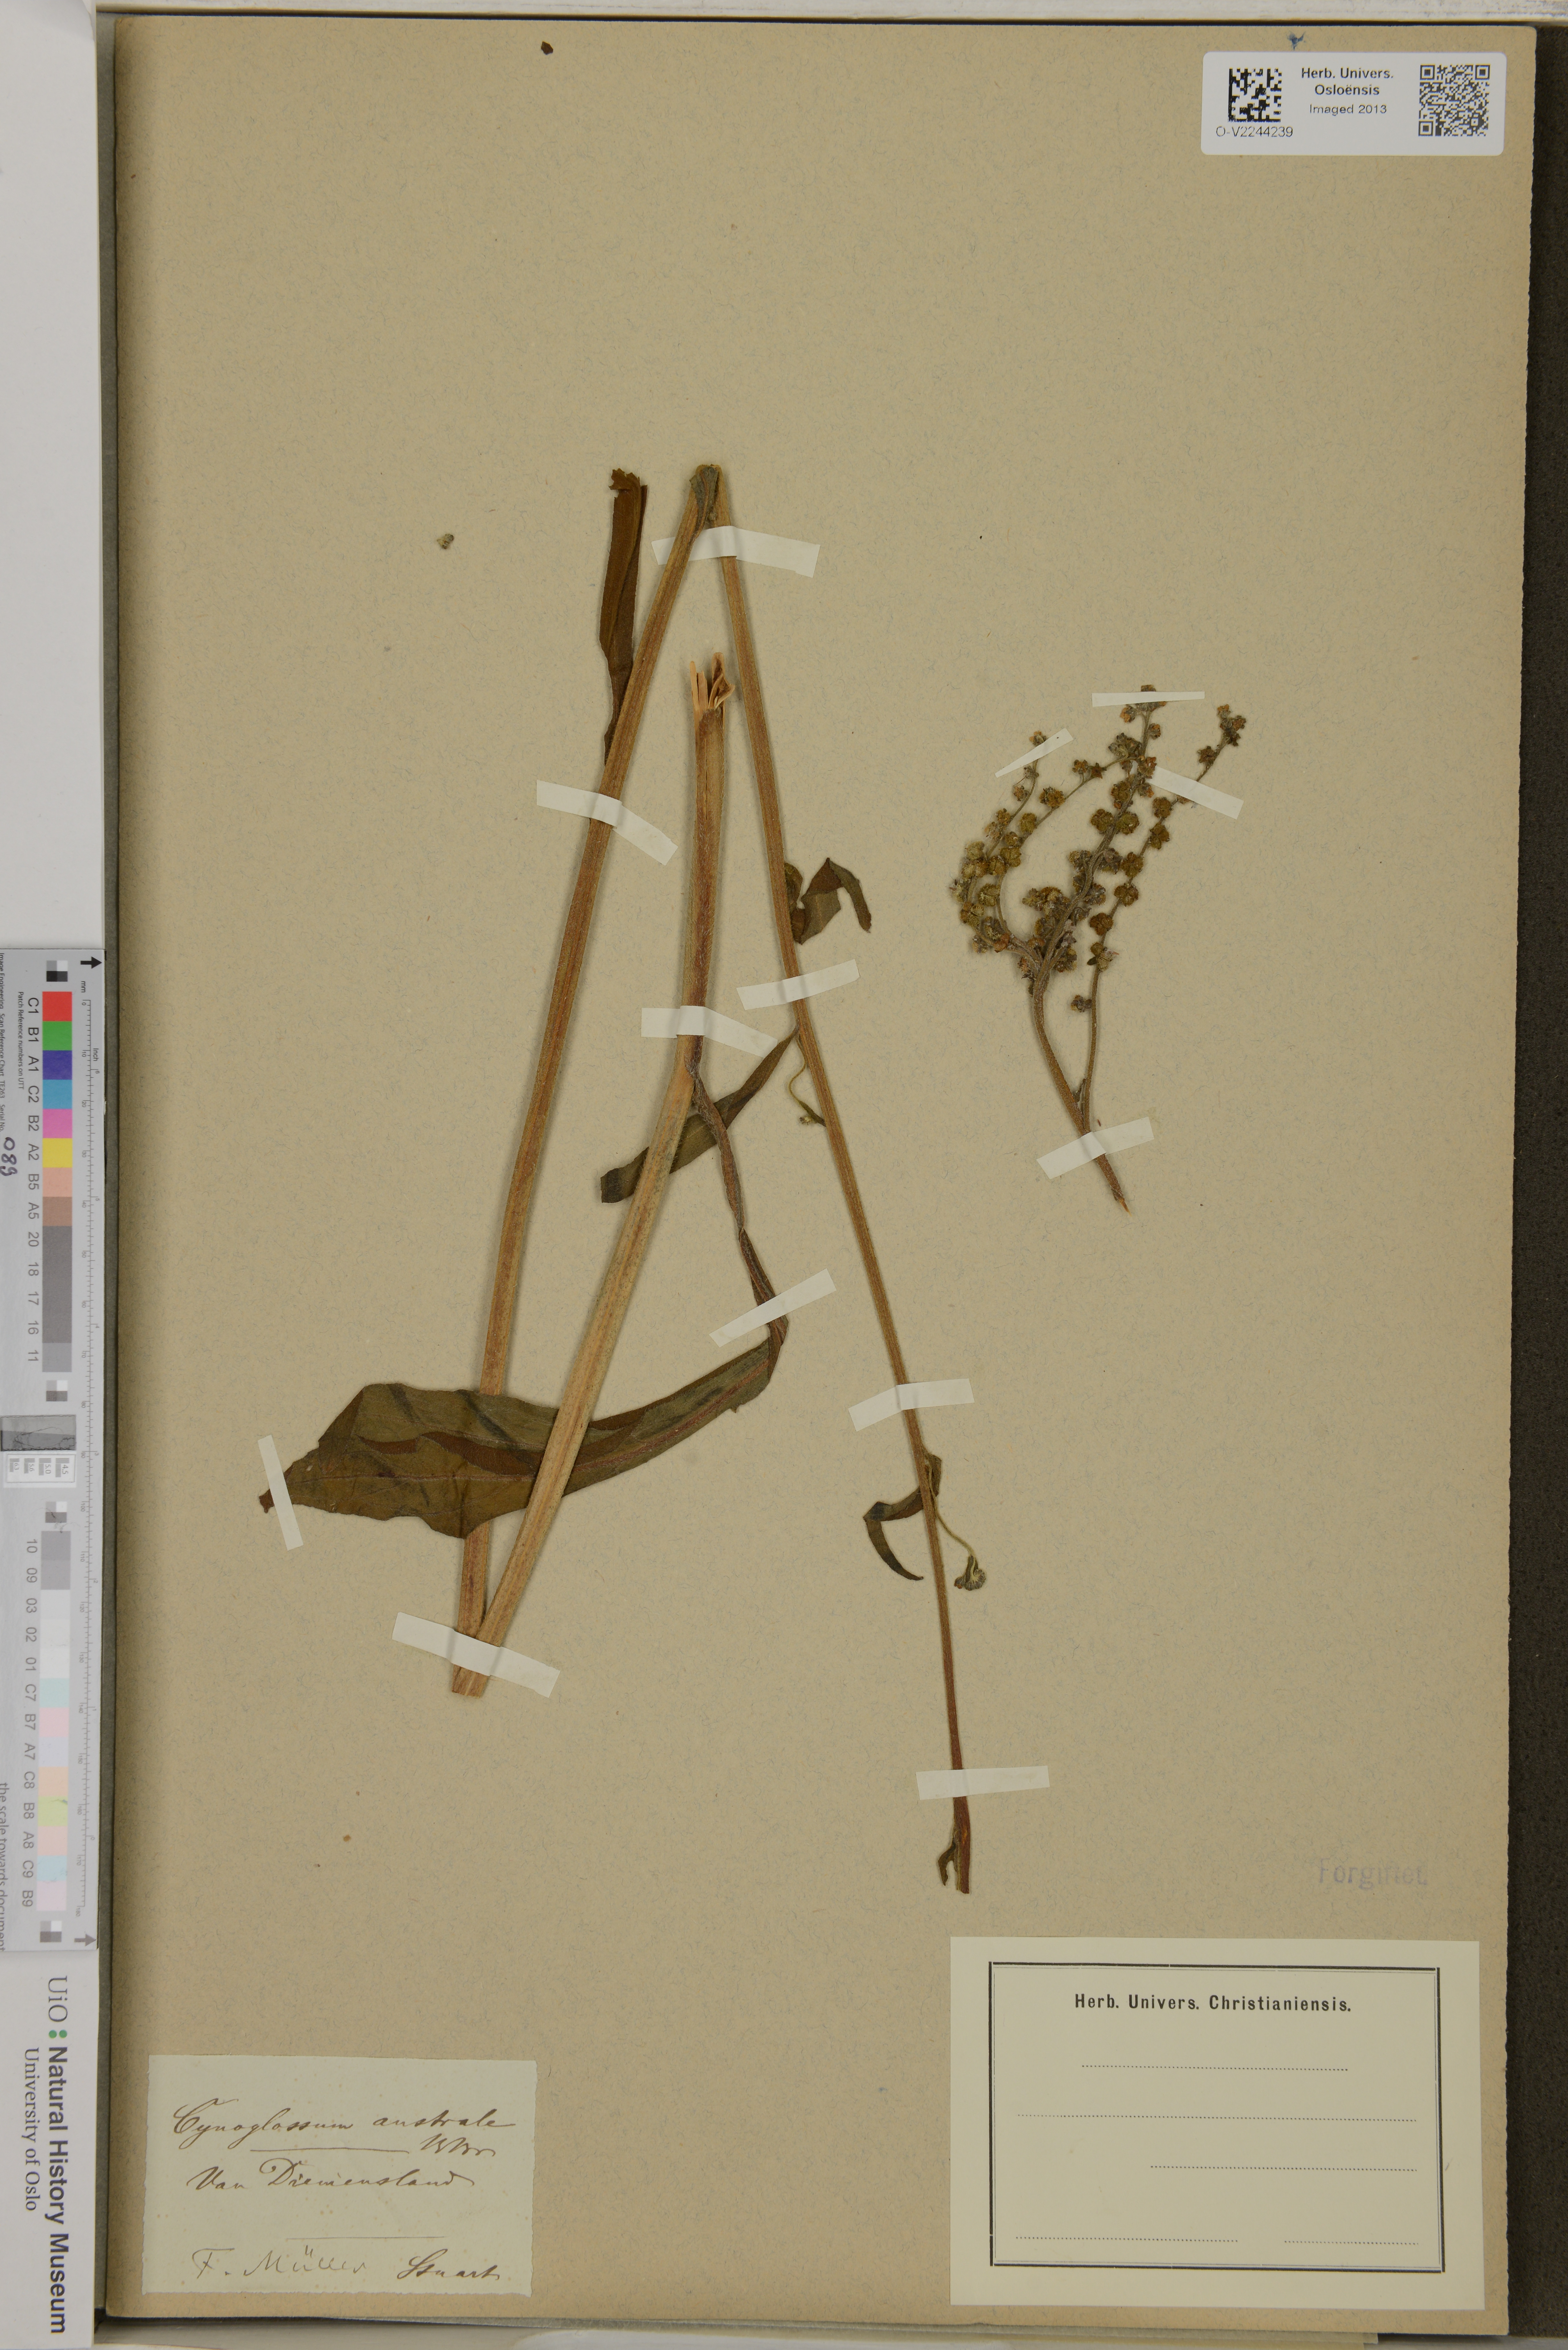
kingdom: Plantae
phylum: Tracheophyta
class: Magnoliopsida
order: Boraginales
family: Boraginaceae
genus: Cynoglossum
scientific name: Cynoglossum australe
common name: Australian hound's-tongue
